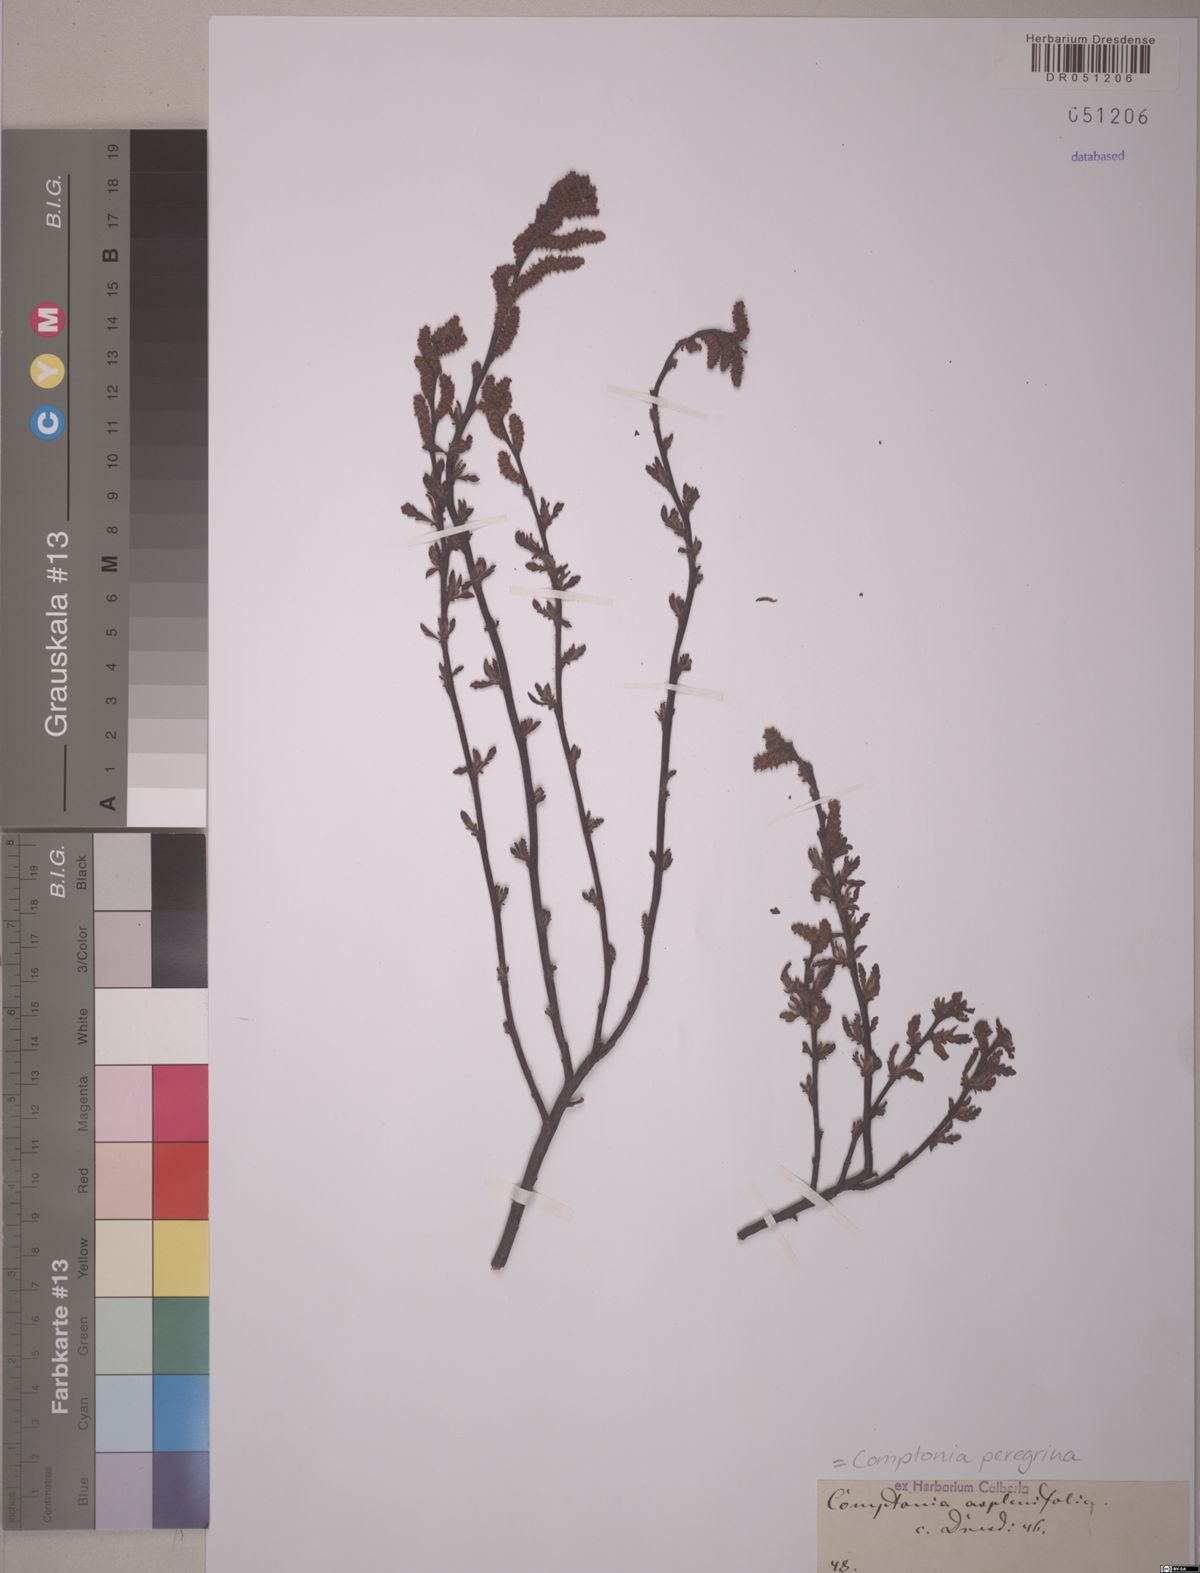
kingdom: Plantae
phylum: Tracheophyta
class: Magnoliopsida
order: Fagales
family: Myricaceae
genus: Comptonia
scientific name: Comptonia peregrina
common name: Sweet-fern
